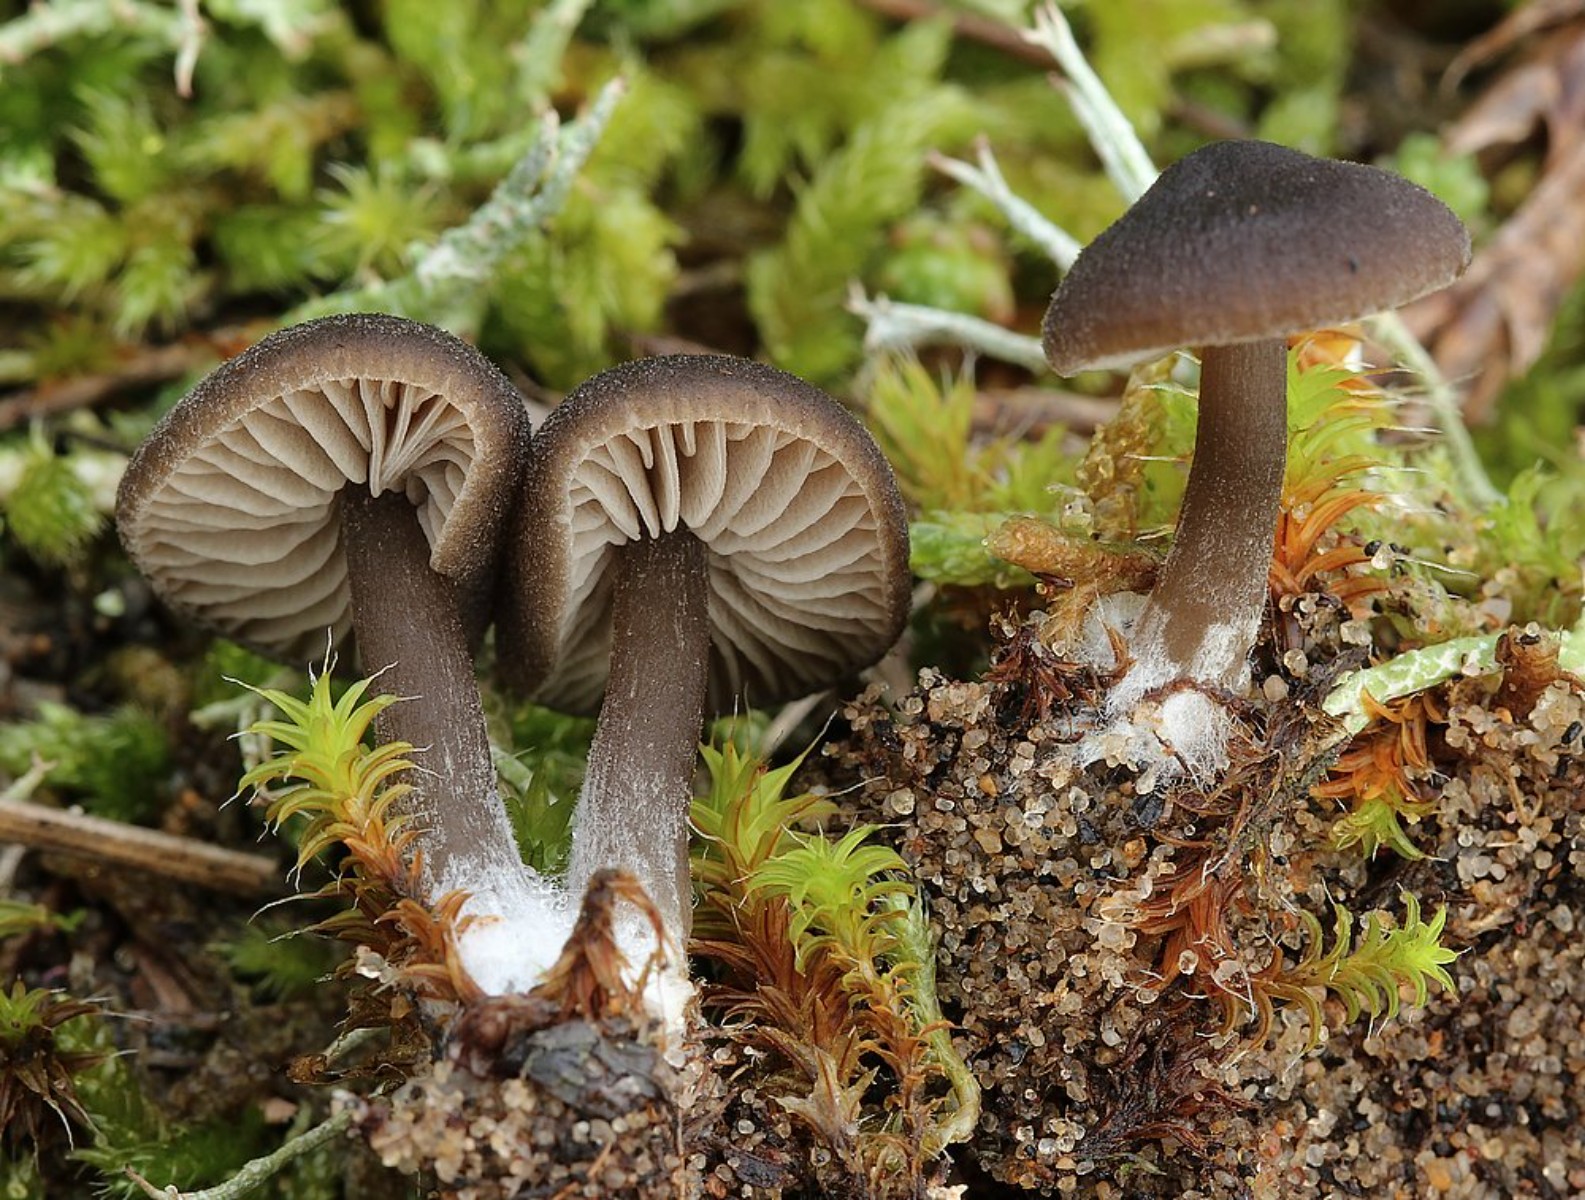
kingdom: Fungi
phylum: Basidiomycota
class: Agaricomycetes
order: Agaricales
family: Entolomataceae
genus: Entoloma
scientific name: Entoloma
